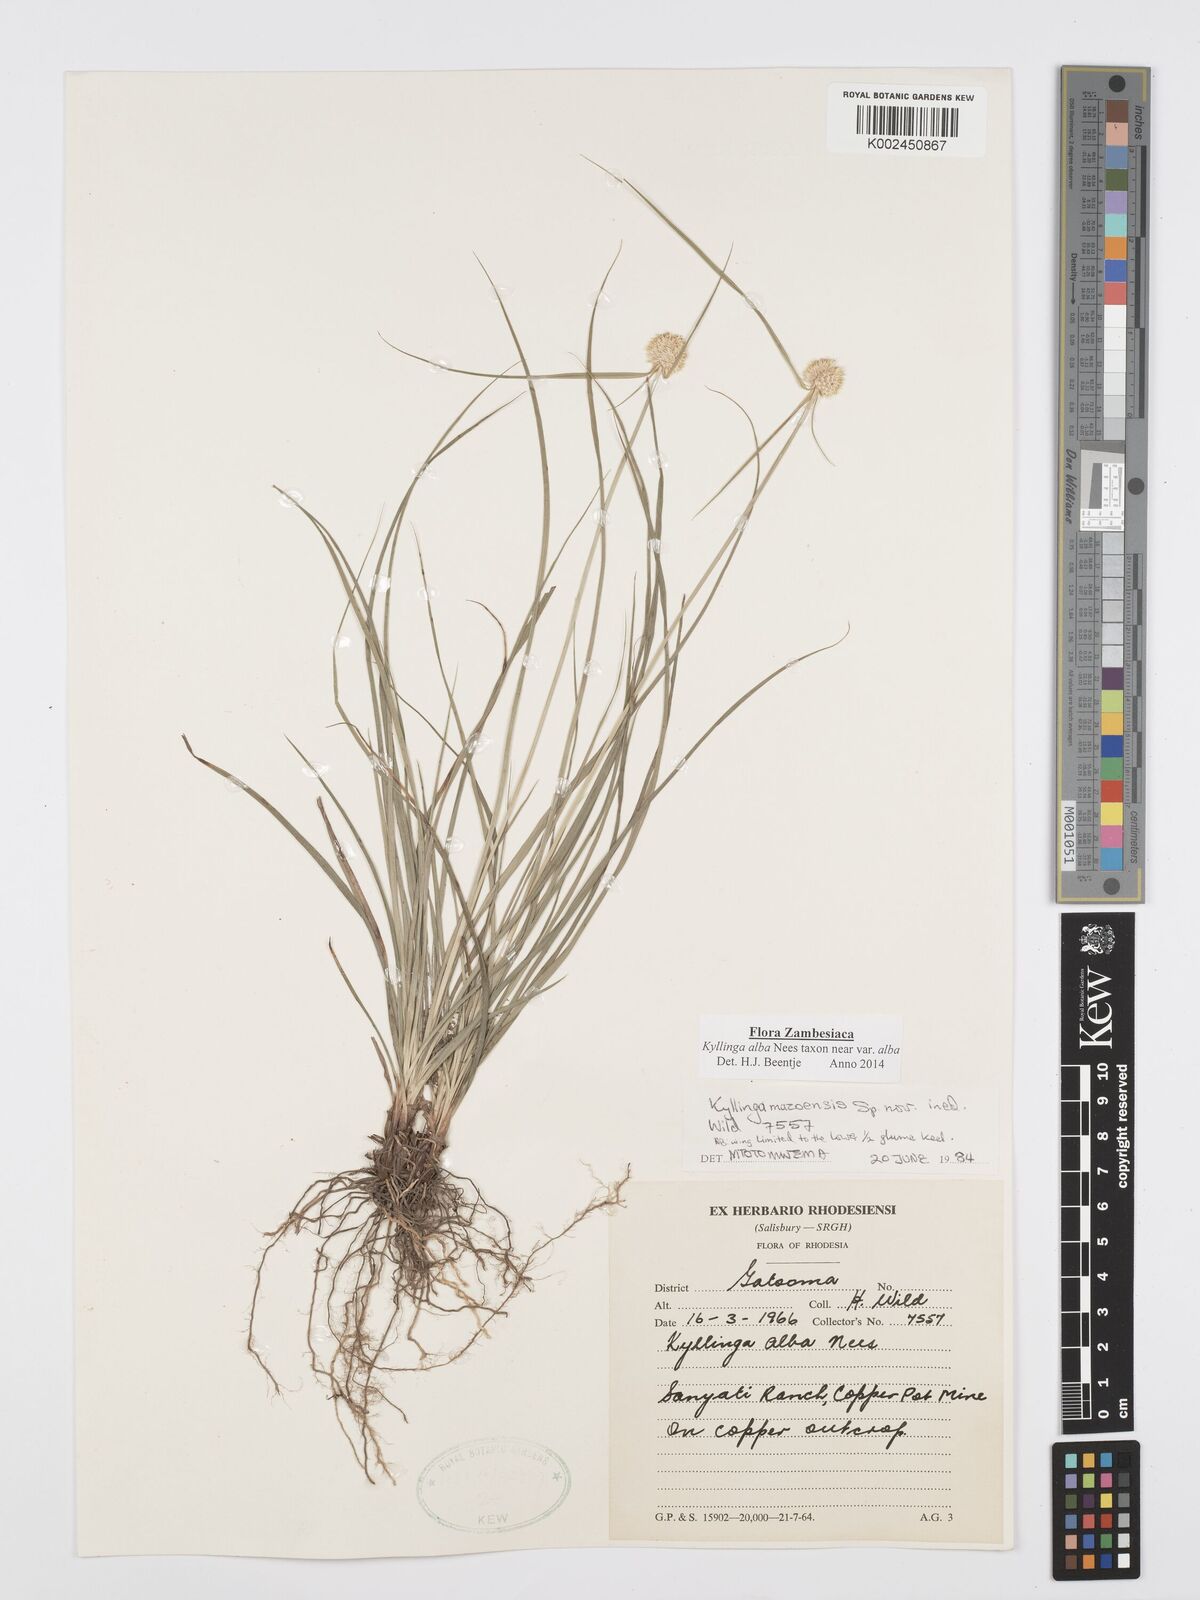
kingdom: Plantae
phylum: Tracheophyta
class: Liliopsida
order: Poales
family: Cyperaceae
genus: Cyperus
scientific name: Cyperus
